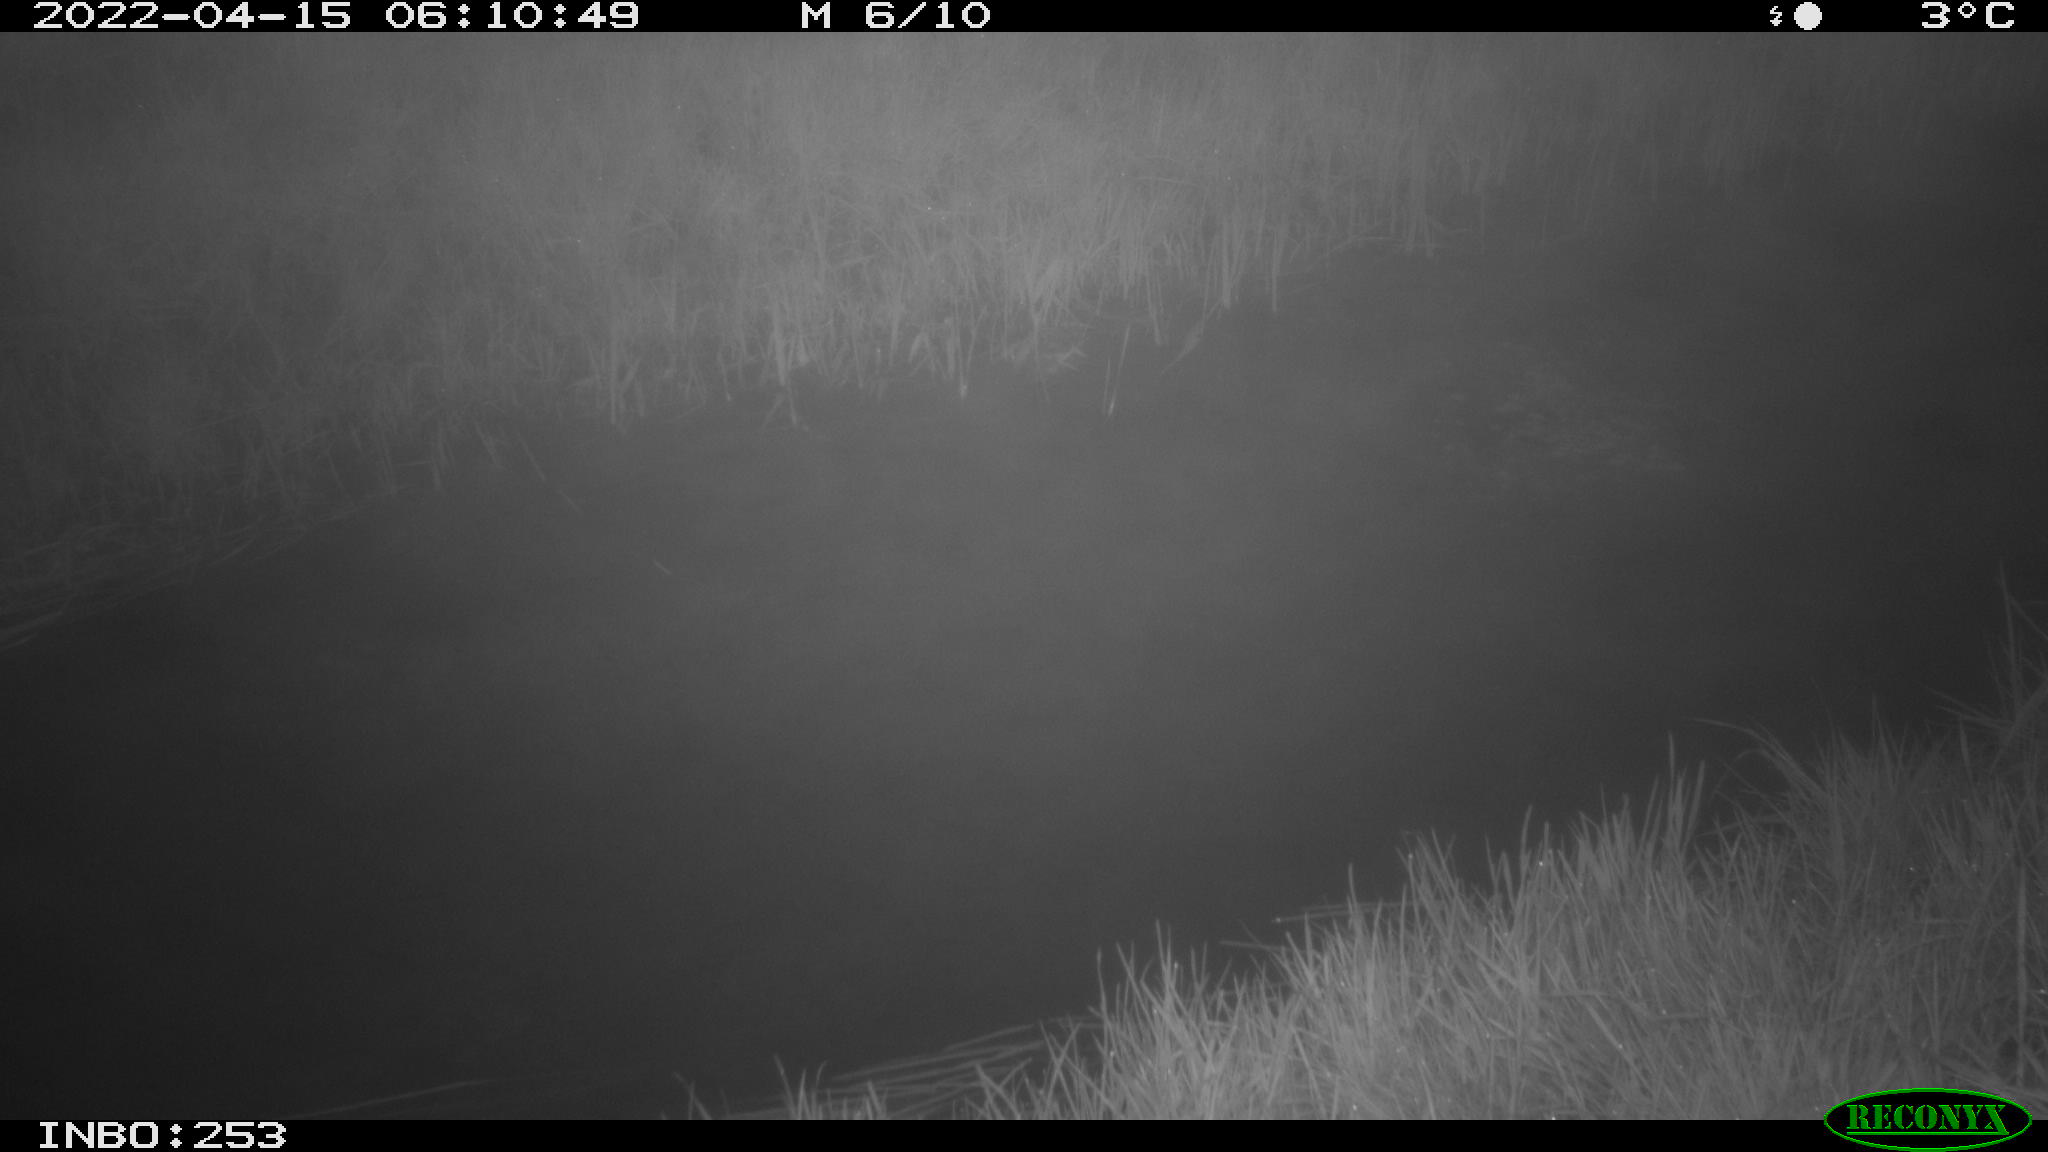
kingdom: Animalia
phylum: Chordata
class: Aves
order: Anseriformes
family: Anatidae
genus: Anas
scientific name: Anas platyrhynchos
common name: Mallard
